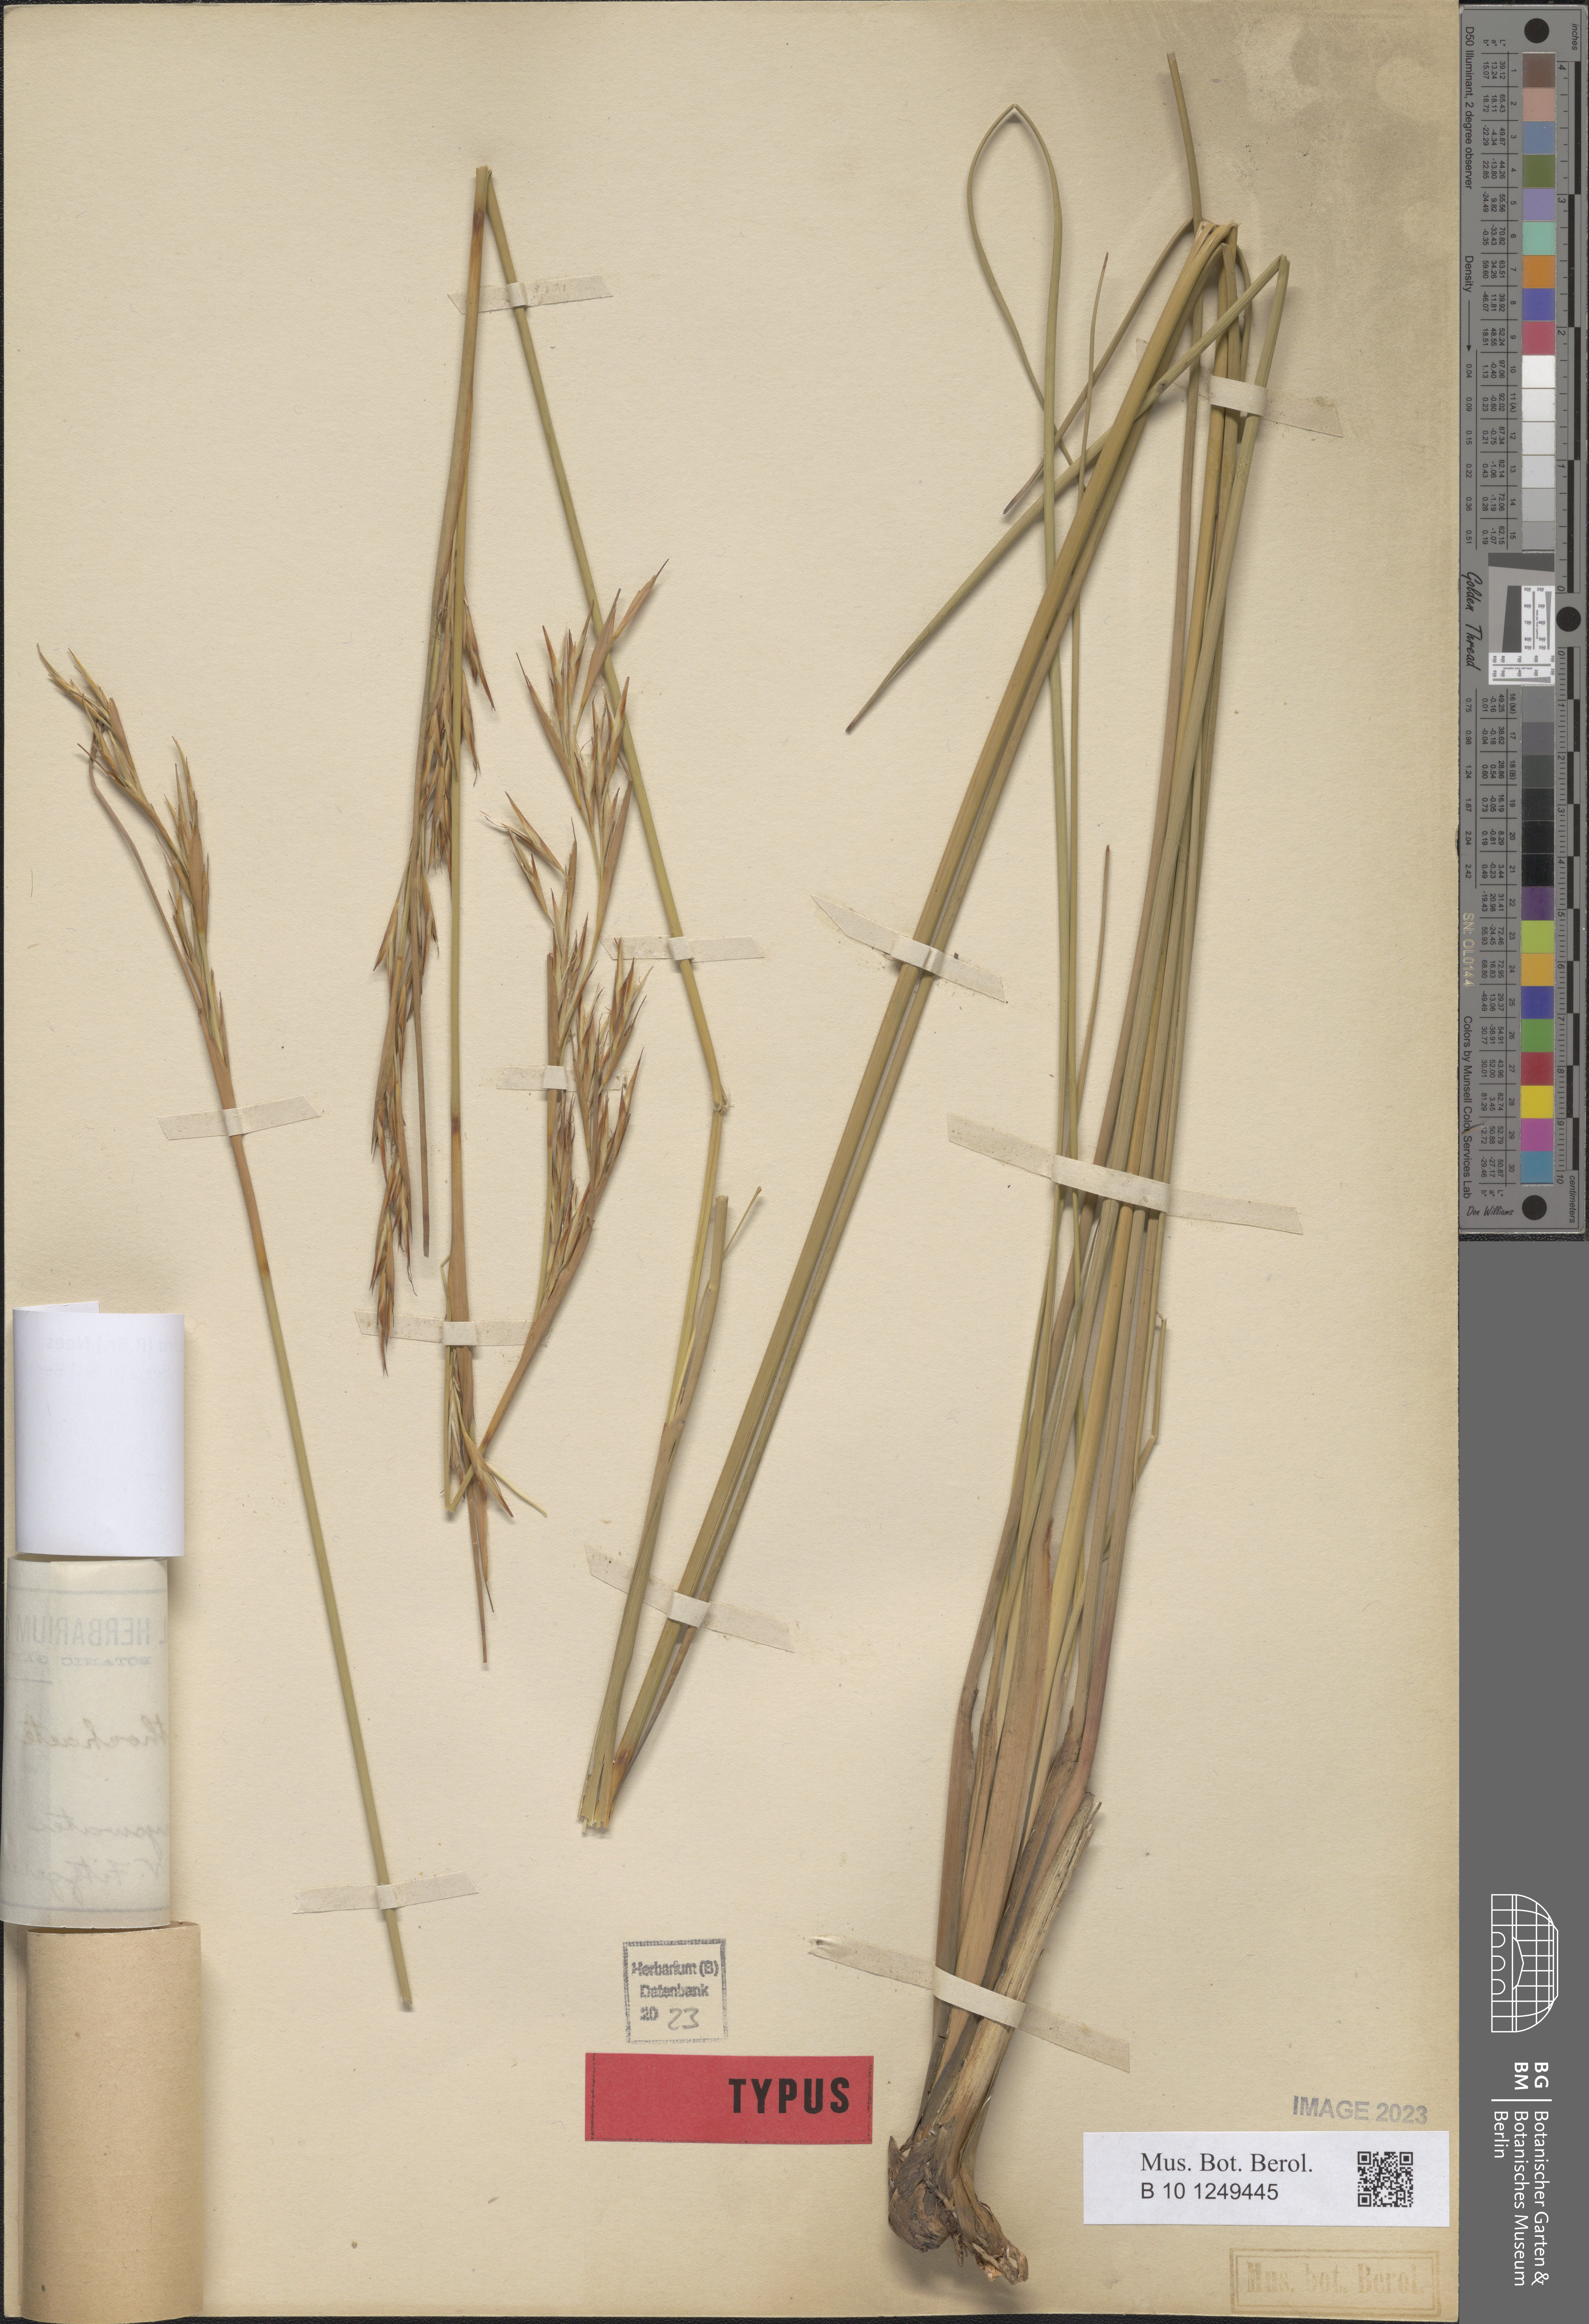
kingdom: Plantae
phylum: Tracheophyta
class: Liliopsida
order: Poales
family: Cyperaceae
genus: Cyathochaeta
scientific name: Cyathochaeta diandra
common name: Sheath rush
